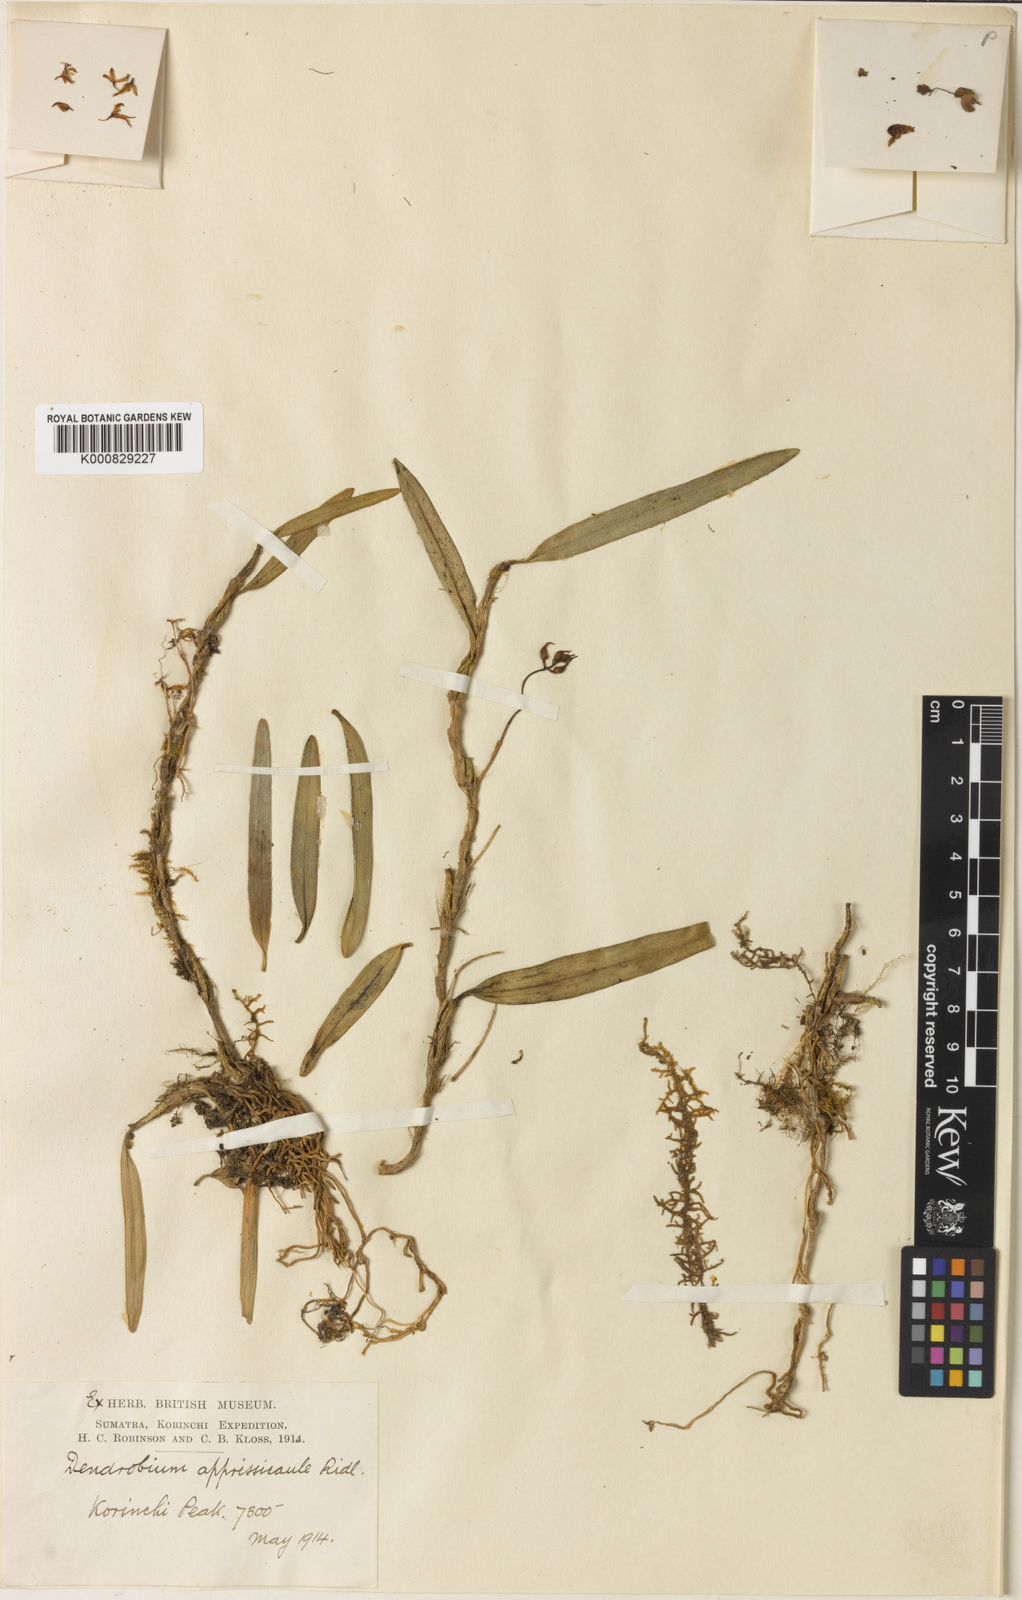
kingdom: Plantae
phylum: Tracheophyta
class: Liliopsida
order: Asparagales
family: Orchidaceae
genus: Bulbophyllum
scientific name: Bulbophyllum appressicaule
